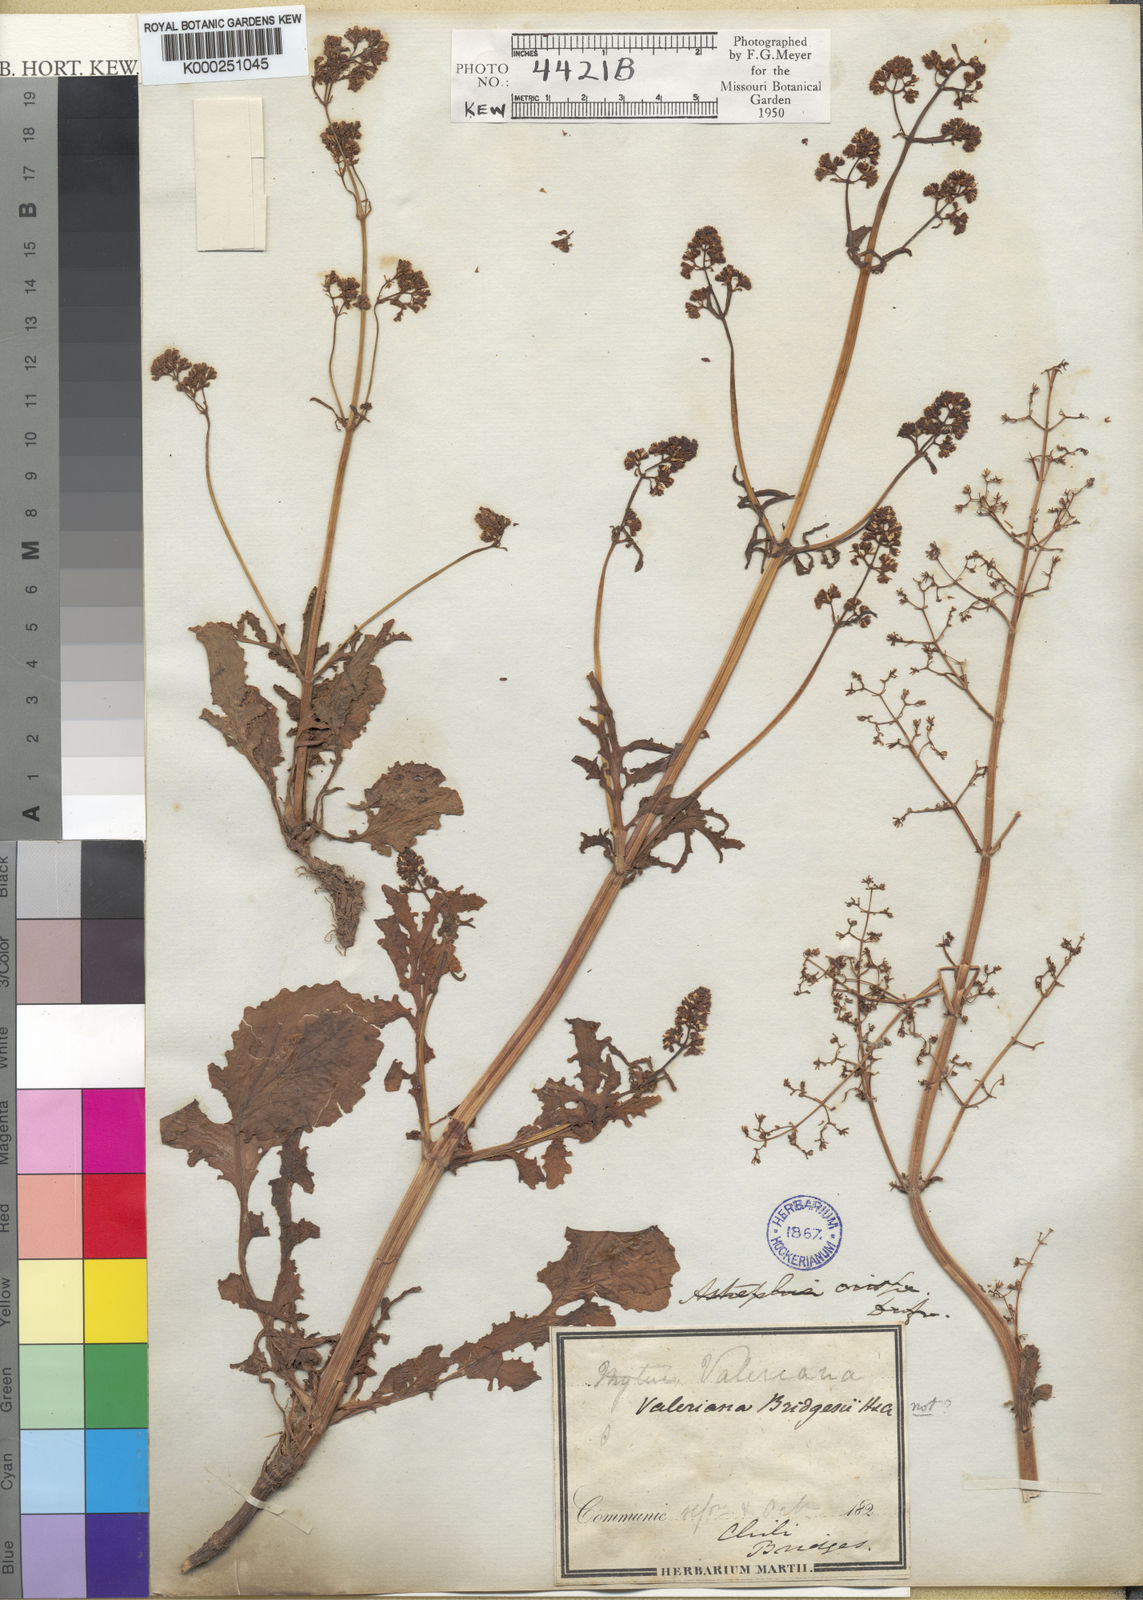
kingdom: Plantae
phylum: Tracheophyta
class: Magnoliopsida
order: Dipsacales
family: Caprifoliaceae
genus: Valeriana
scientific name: Valeriana bridgesii
